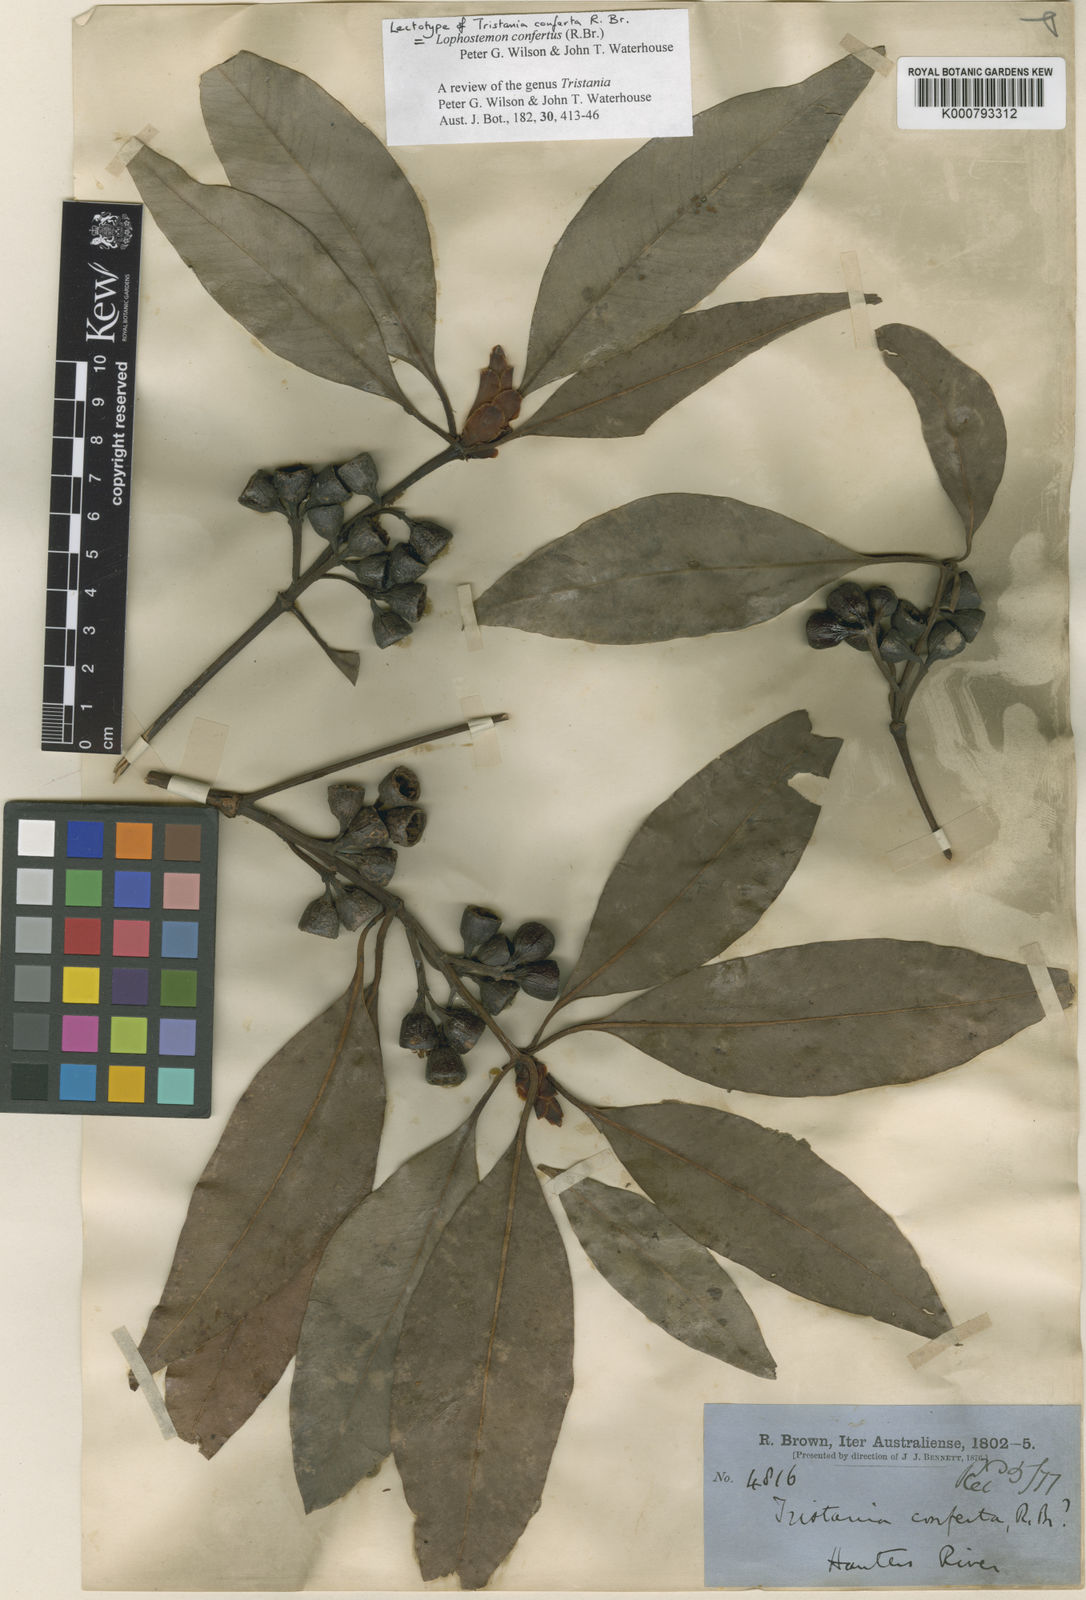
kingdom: Plantae
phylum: Tracheophyta
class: Magnoliopsida
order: Myrtales
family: Myrtaceae
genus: Lophostemon
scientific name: Lophostemon confertus
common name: Brisbane box
